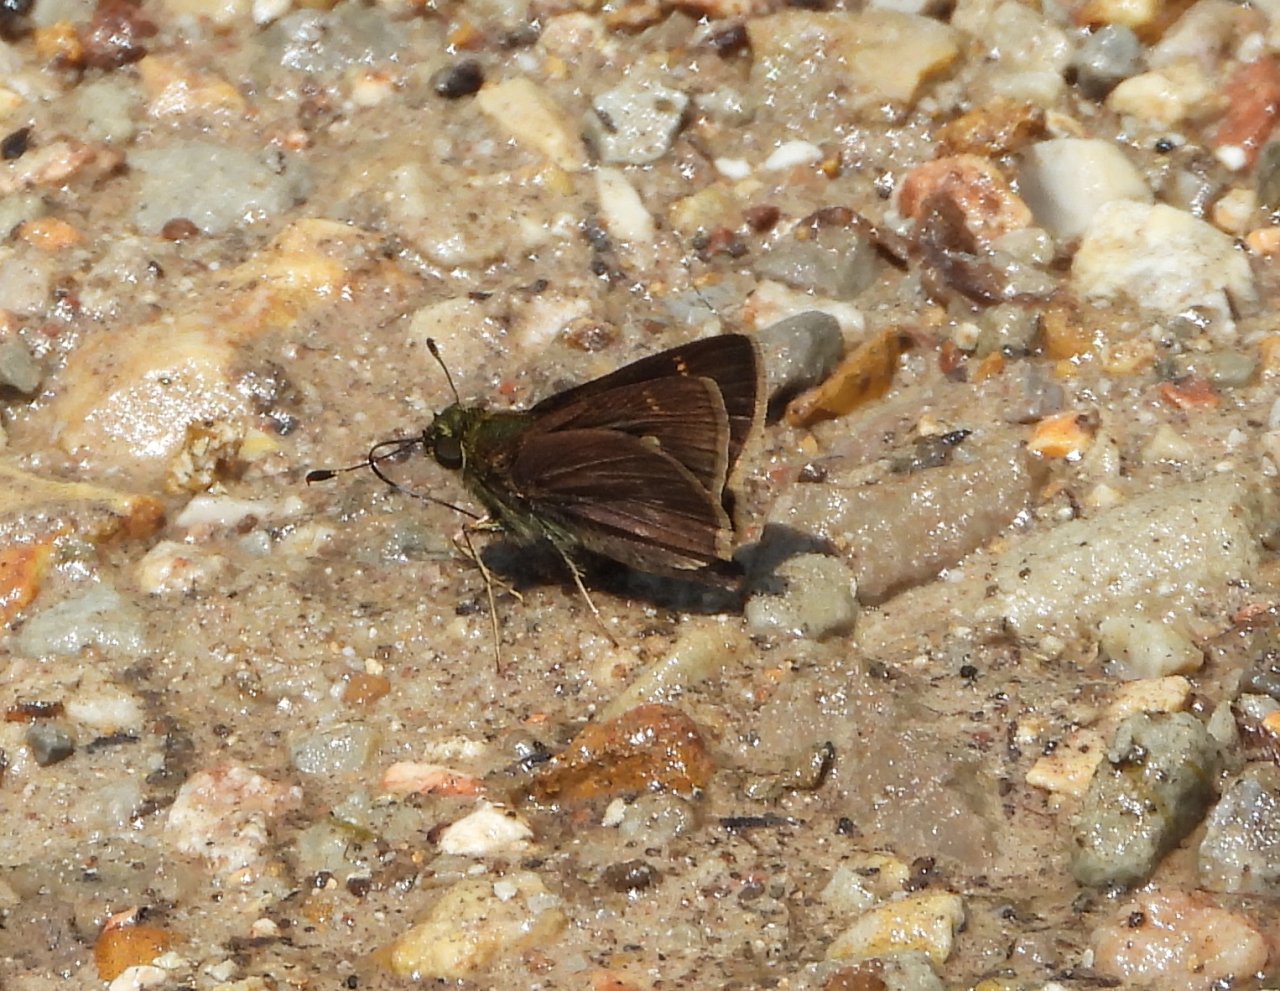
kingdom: Animalia
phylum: Arthropoda
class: Insecta
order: Lepidoptera
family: Hesperiidae
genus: Vernia
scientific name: Vernia verna
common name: Little Glassywing
